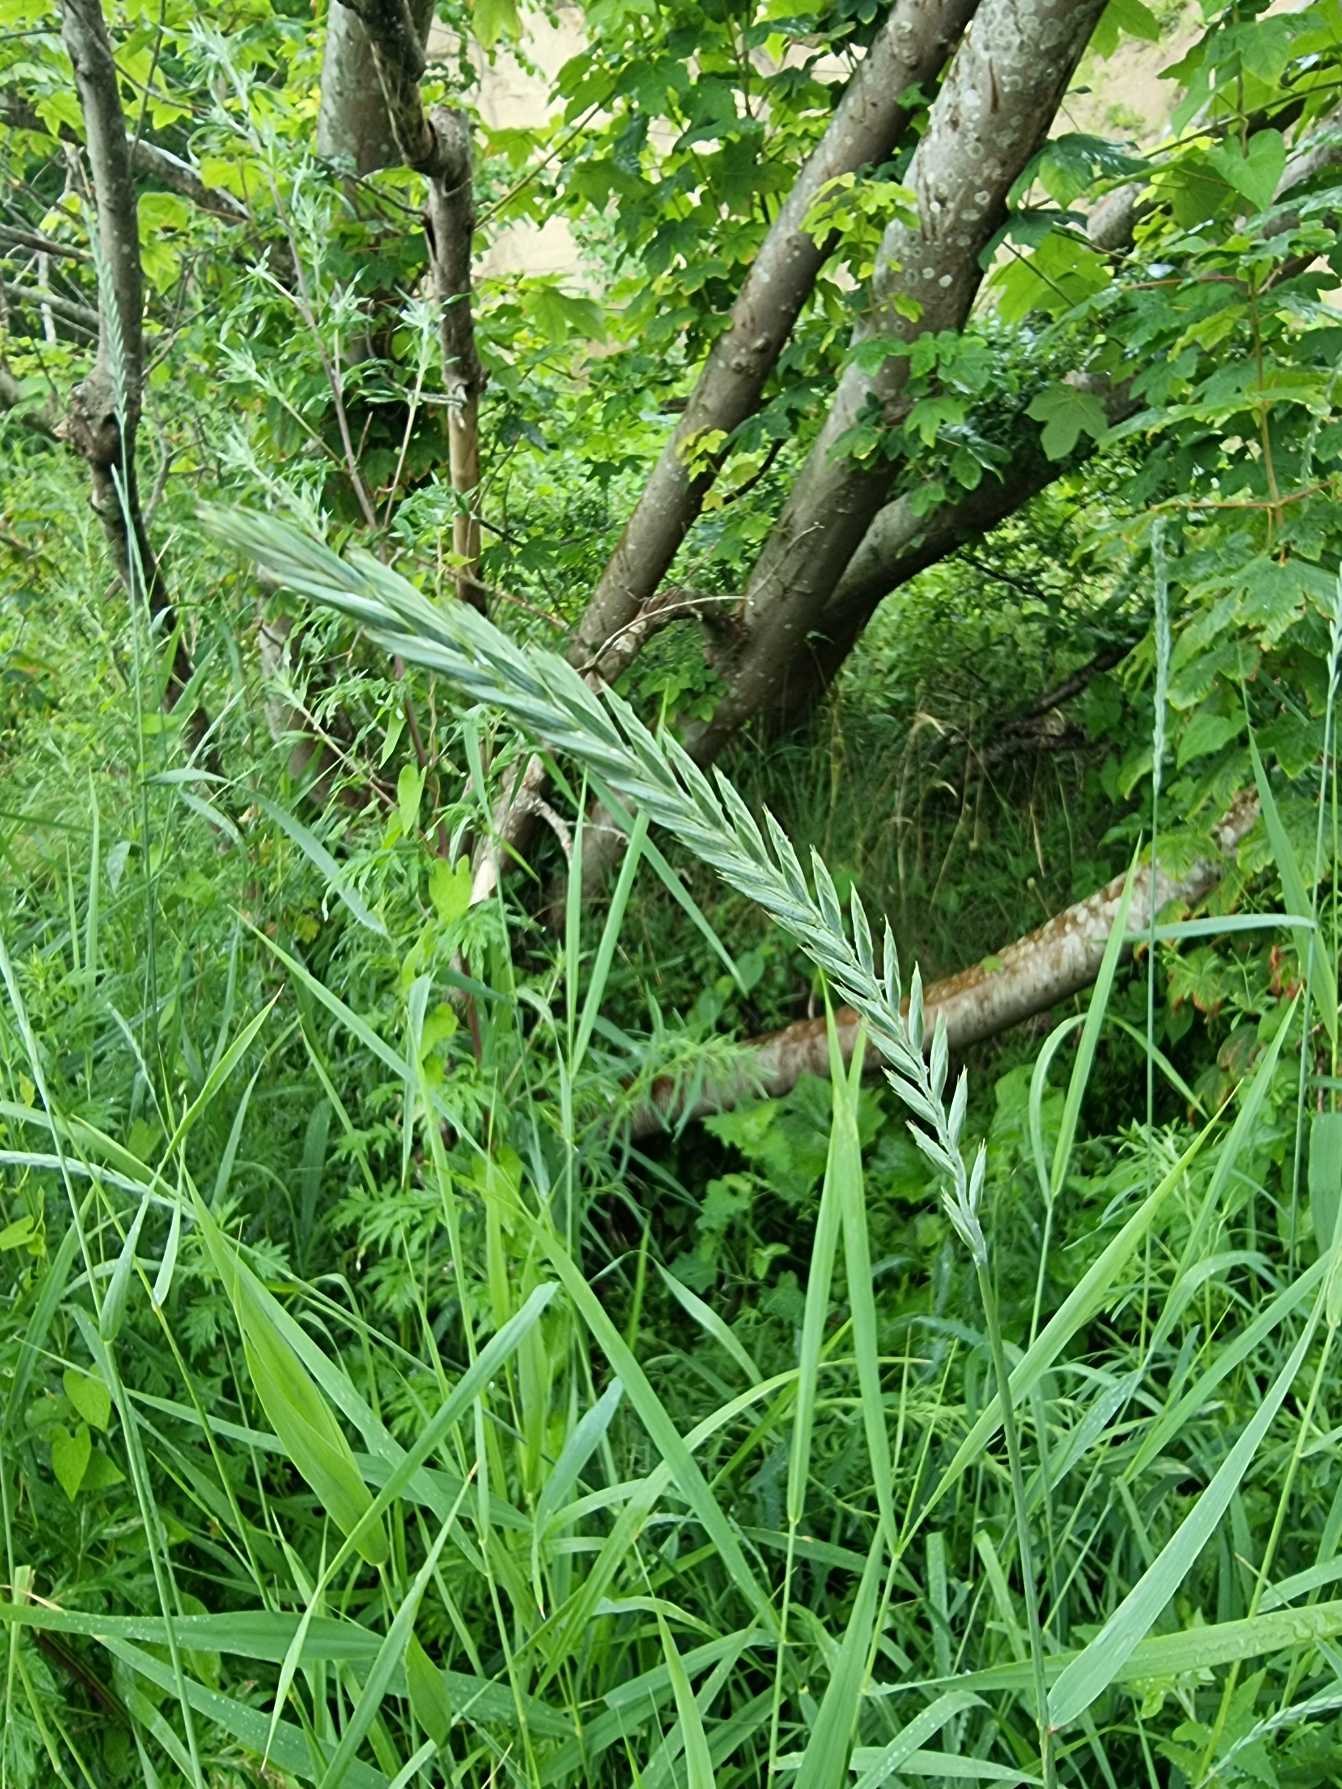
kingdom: Plantae
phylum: Tracheophyta
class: Liliopsida
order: Poales
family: Poaceae
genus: Elymus
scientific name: Elymus repens
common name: Almindelig kvik
